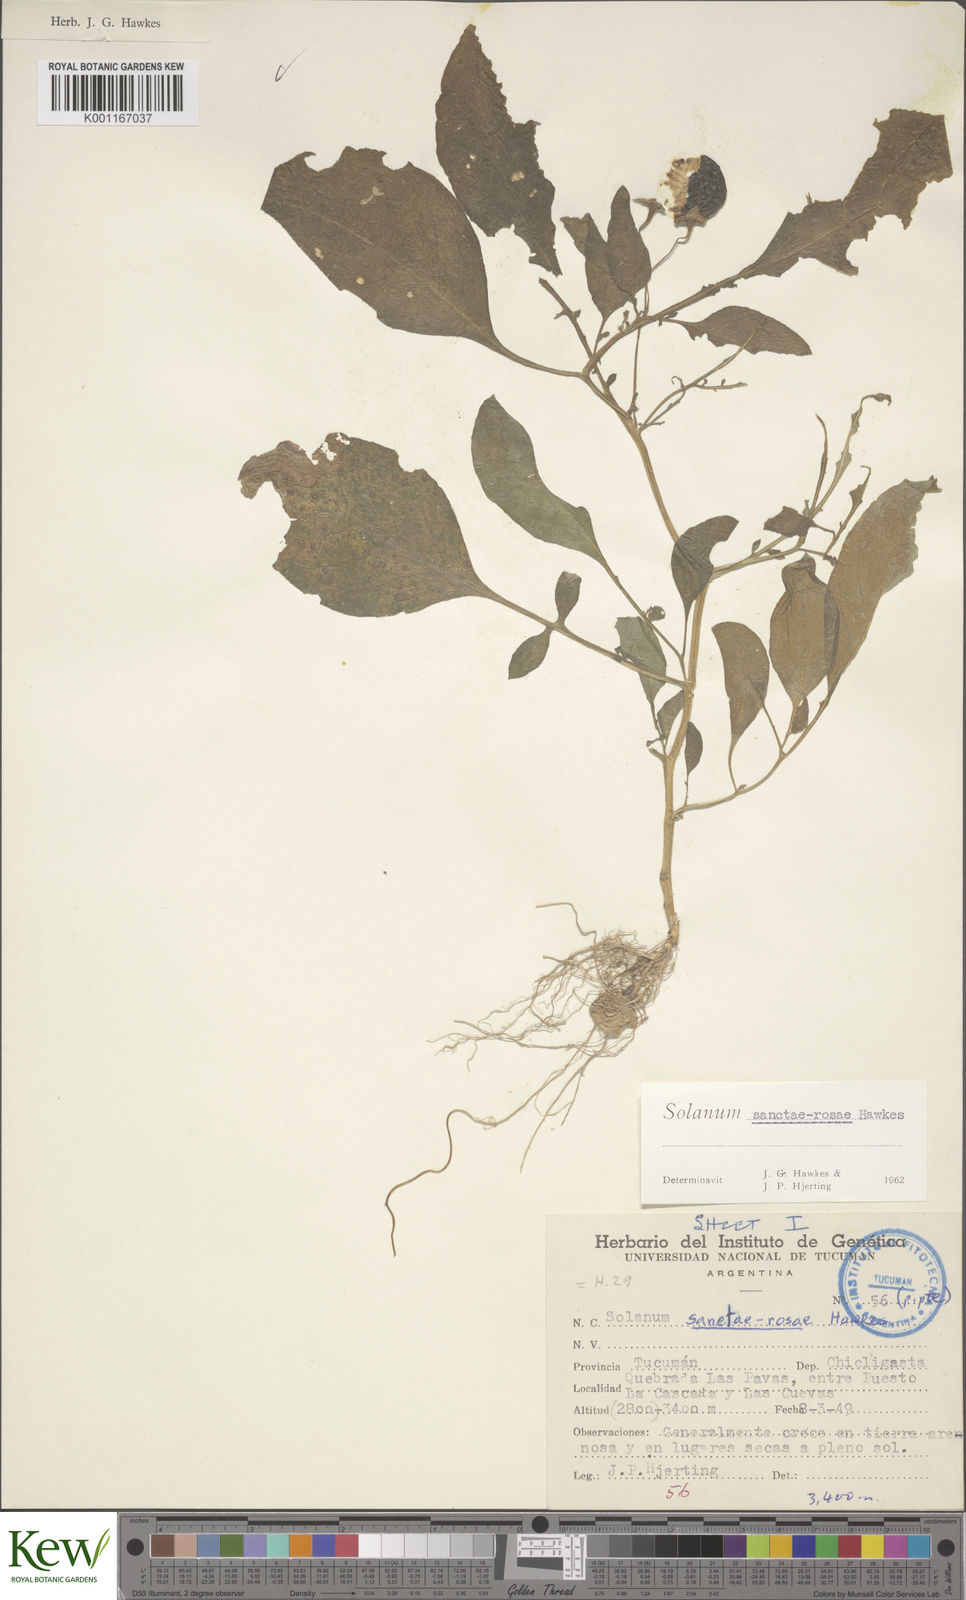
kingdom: Plantae
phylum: Tracheophyta
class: Magnoliopsida
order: Solanales
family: Solanaceae
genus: Solanum
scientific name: Solanum boliviense
